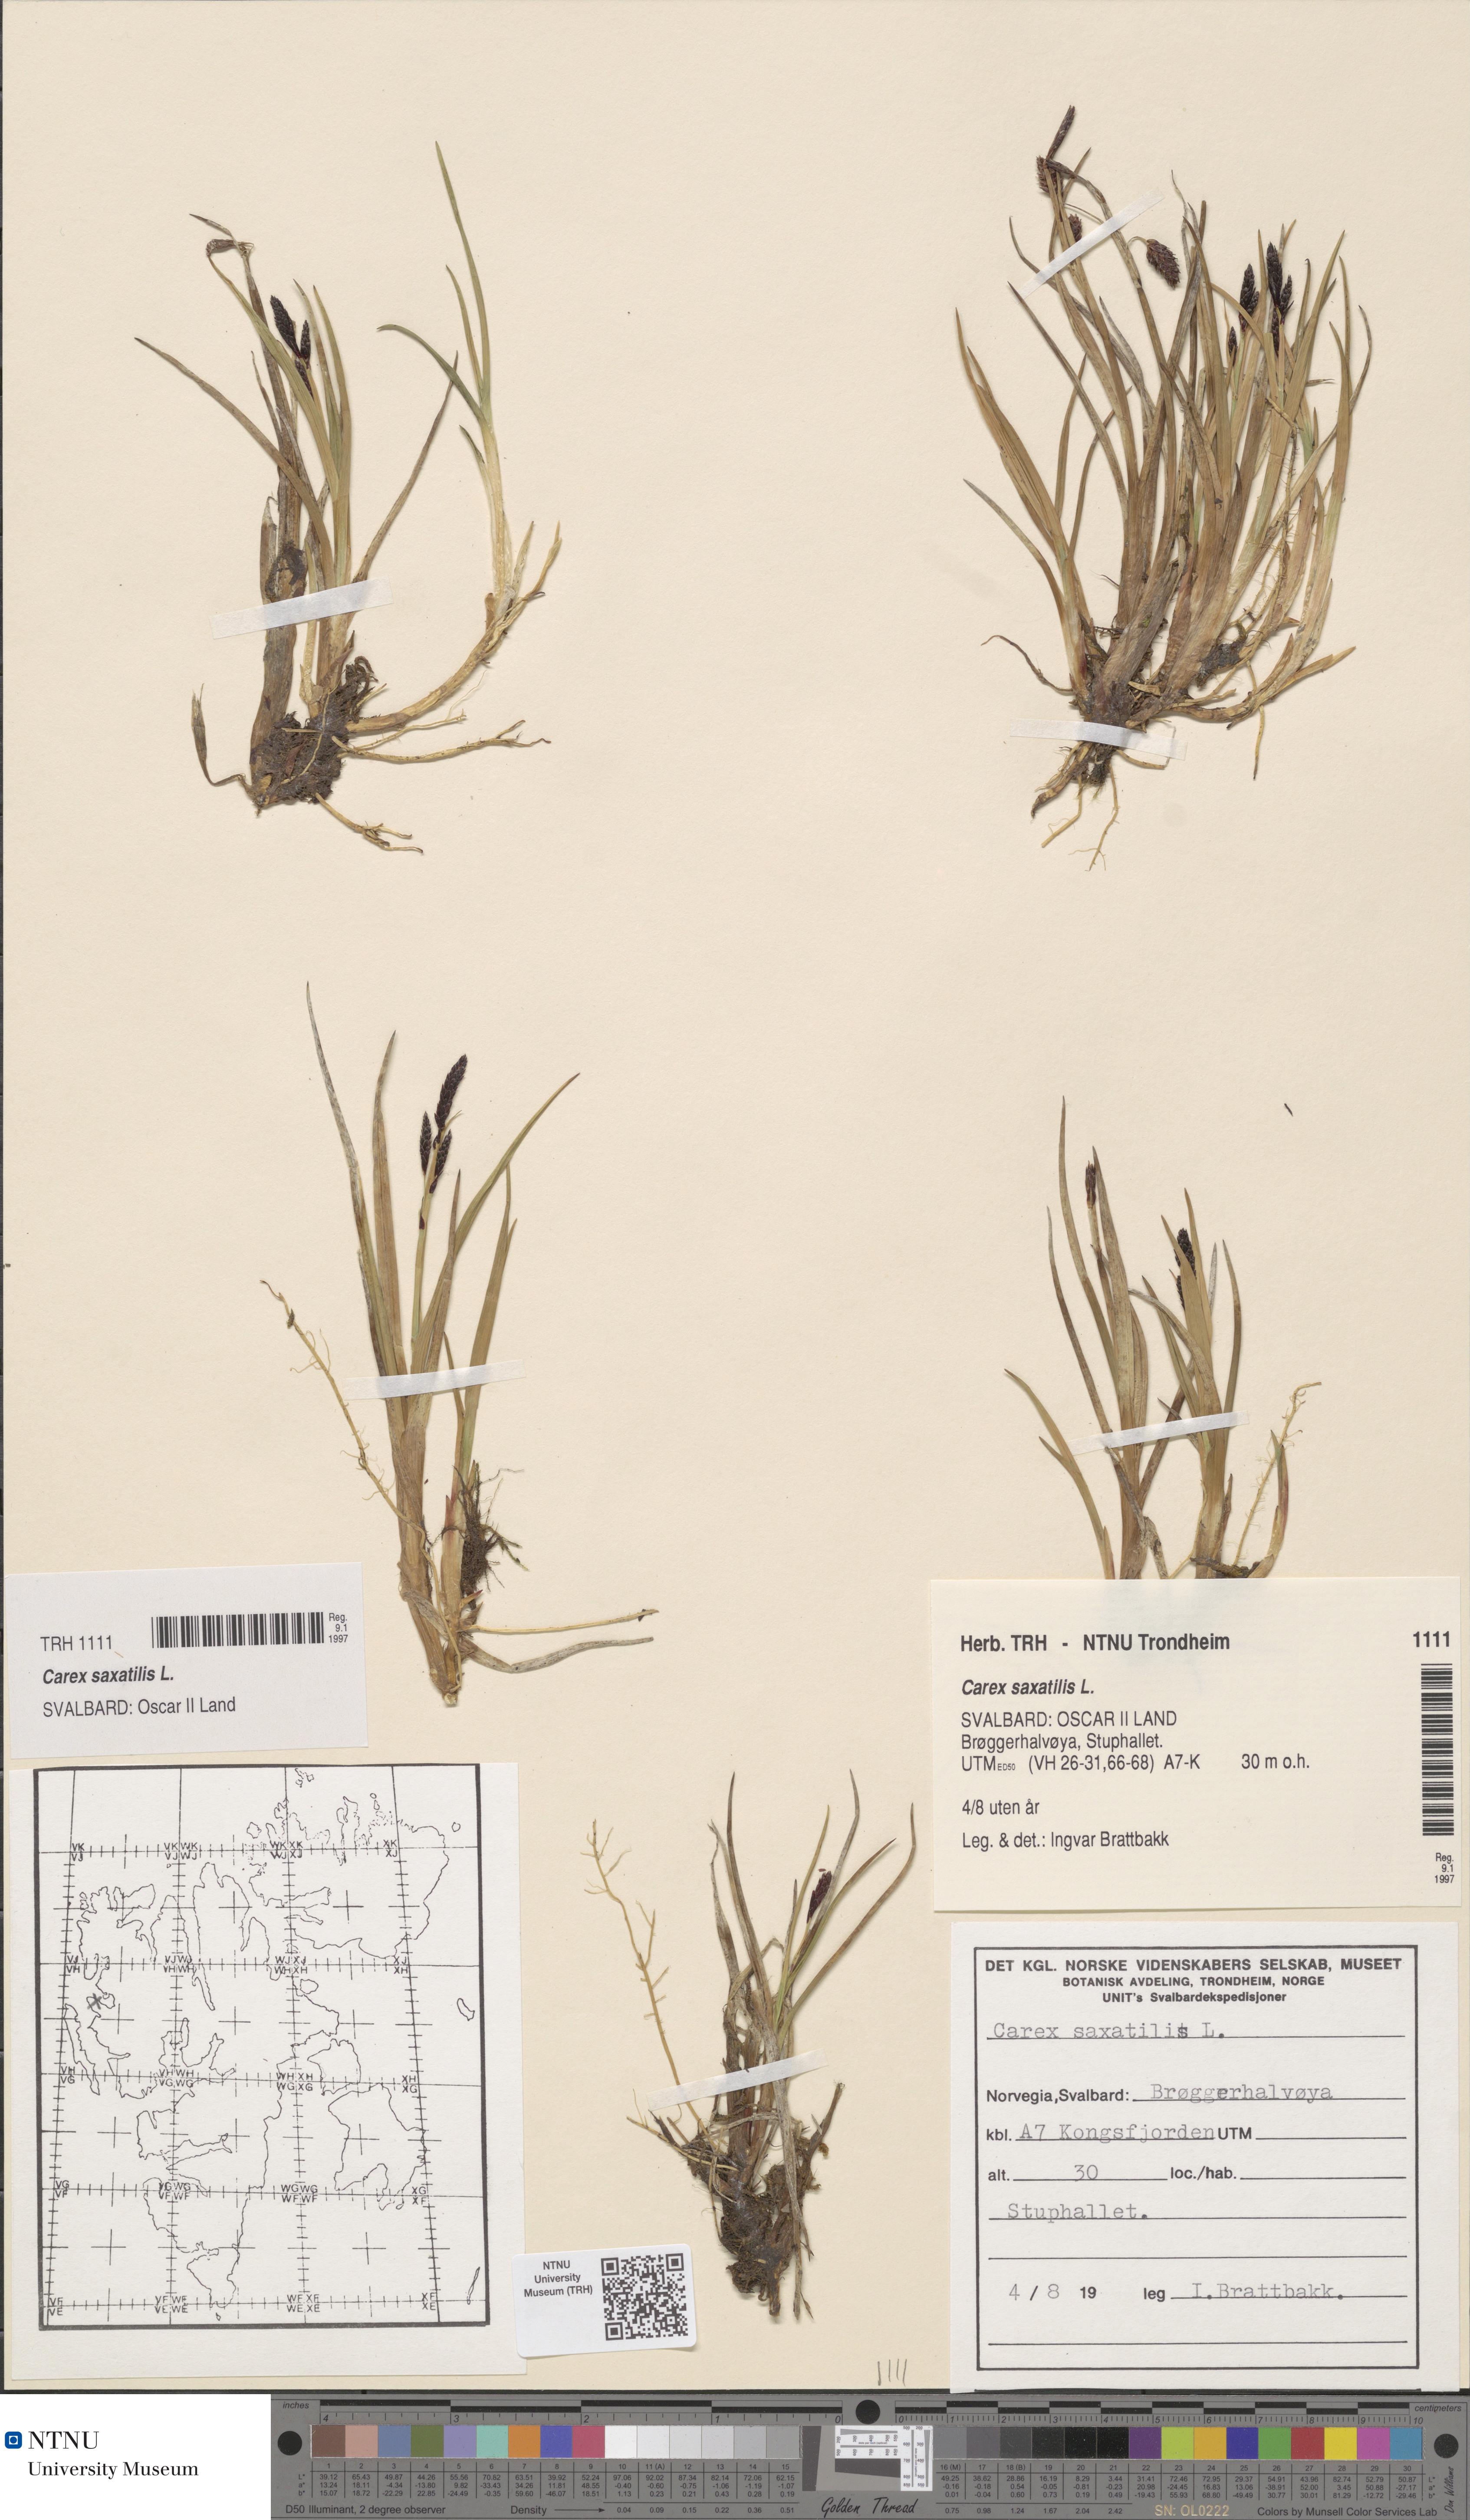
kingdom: Plantae
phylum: Tracheophyta
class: Liliopsida
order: Poales
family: Cyperaceae
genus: Carex
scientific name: Carex saxatilis
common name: Russet sedge
